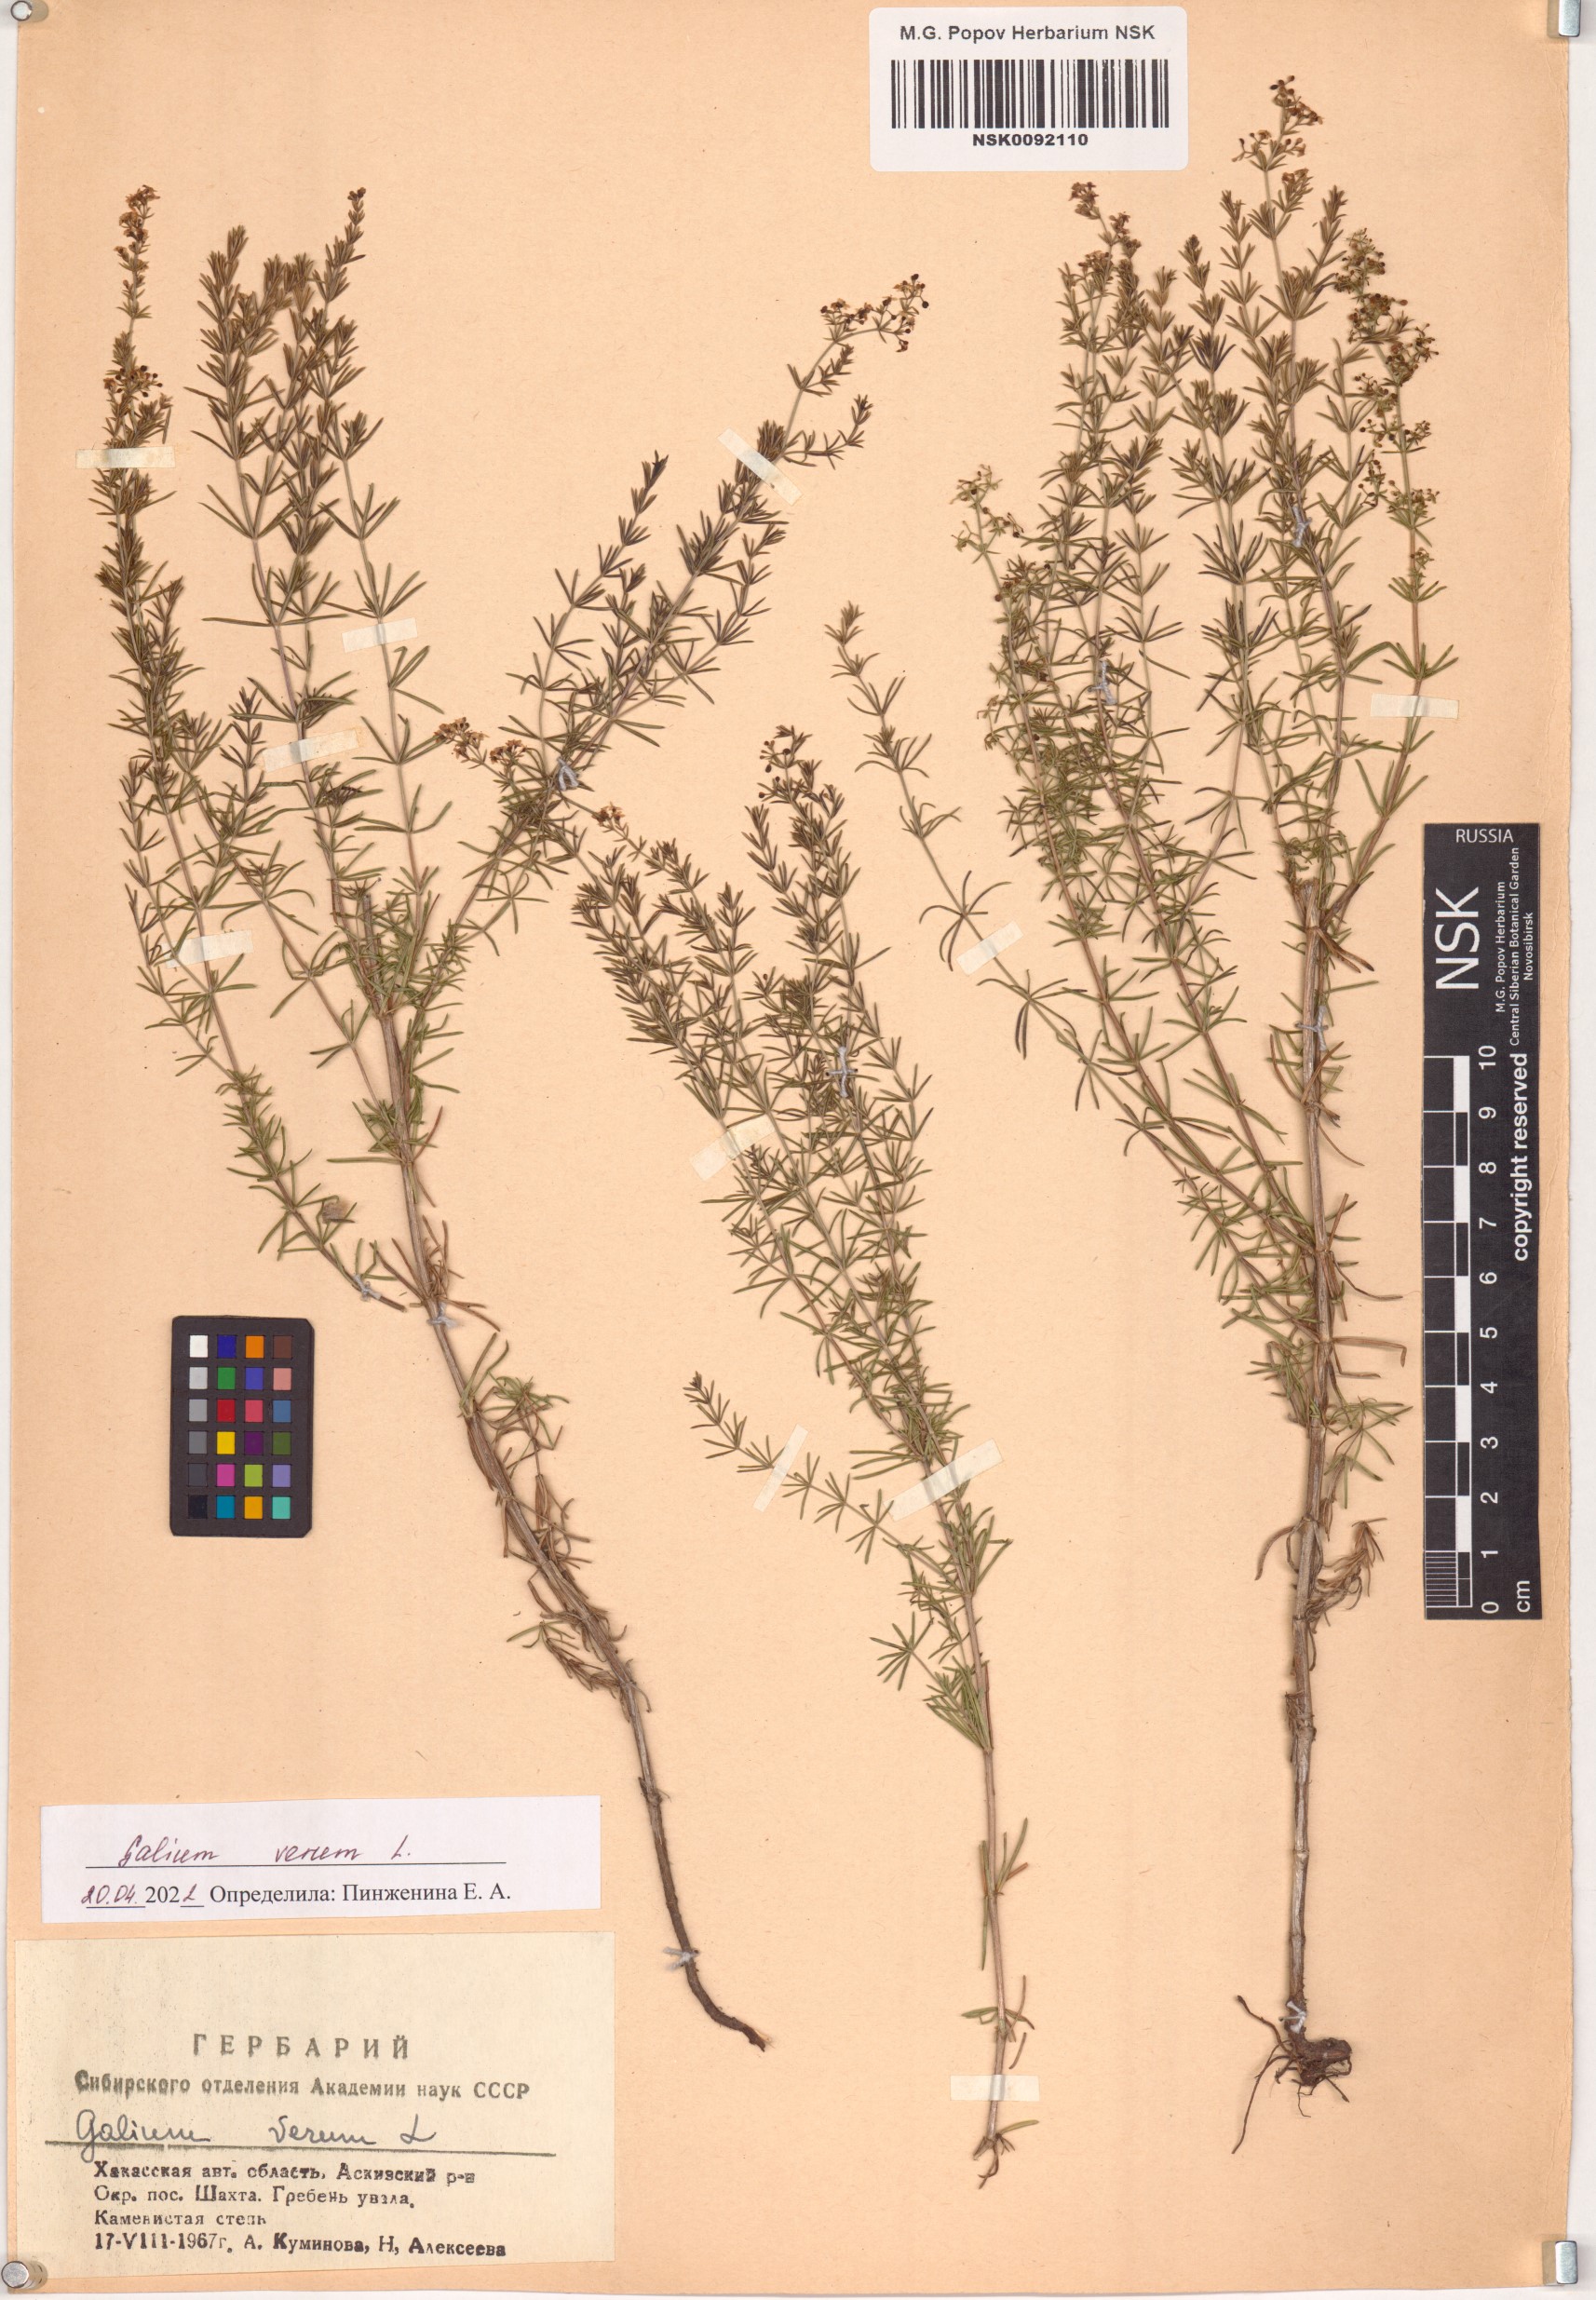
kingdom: Plantae
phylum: Tracheophyta
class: Magnoliopsida
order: Gentianales
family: Rubiaceae
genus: Galium
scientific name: Galium verum
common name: Lady's bedstraw
